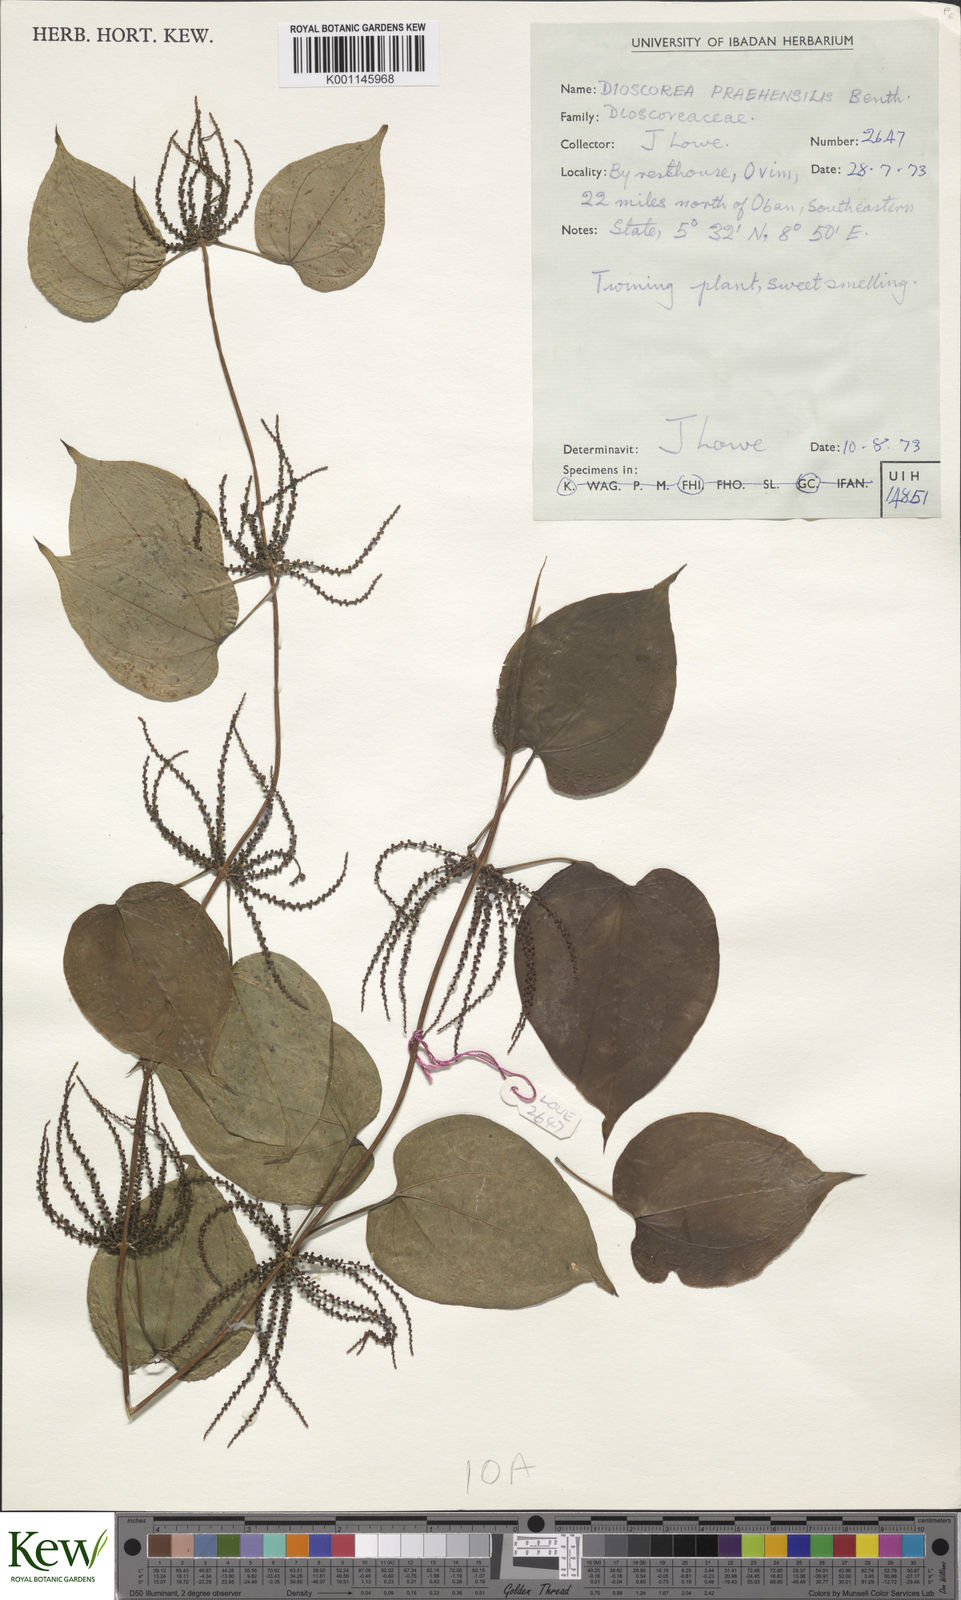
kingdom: Plantae
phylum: Tracheophyta
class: Liliopsida
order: Dioscoreales
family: Dioscoreaceae
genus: Dioscorea
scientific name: Dioscorea
